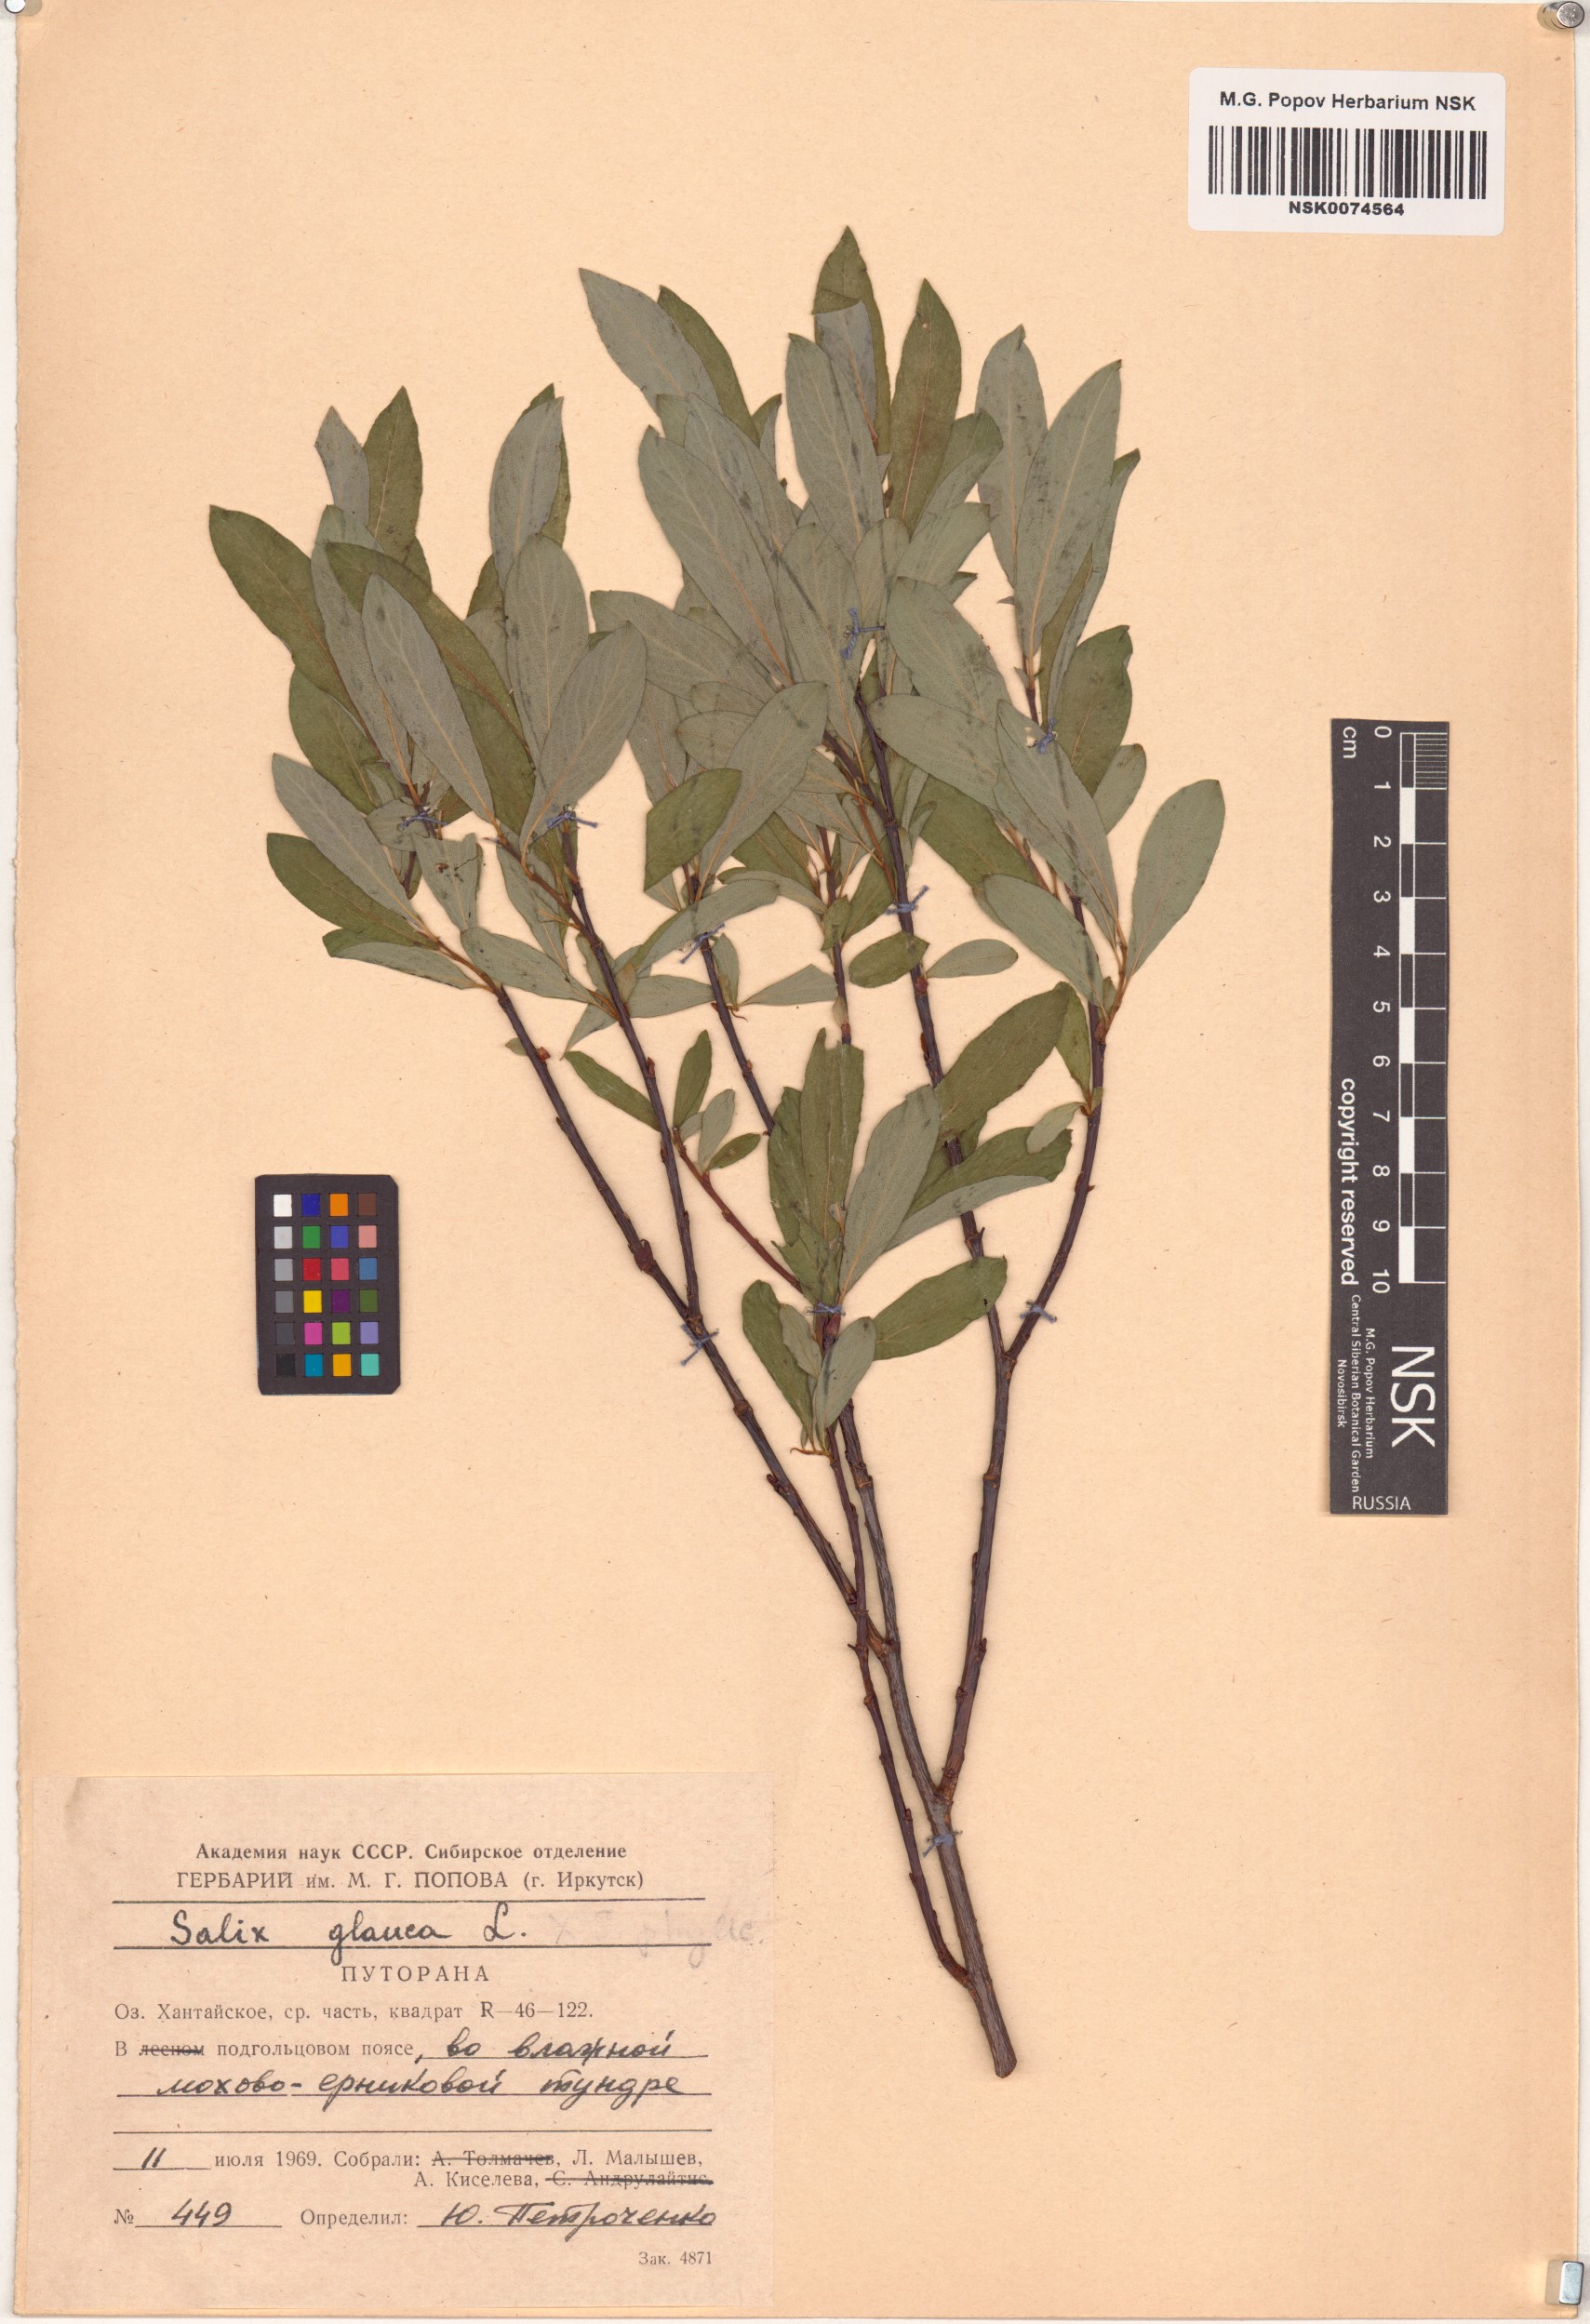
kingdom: Plantae
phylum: Tracheophyta
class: Magnoliopsida
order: Malpighiales
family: Salicaceae
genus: Salix
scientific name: Salix glauca
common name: Glaucous willow
